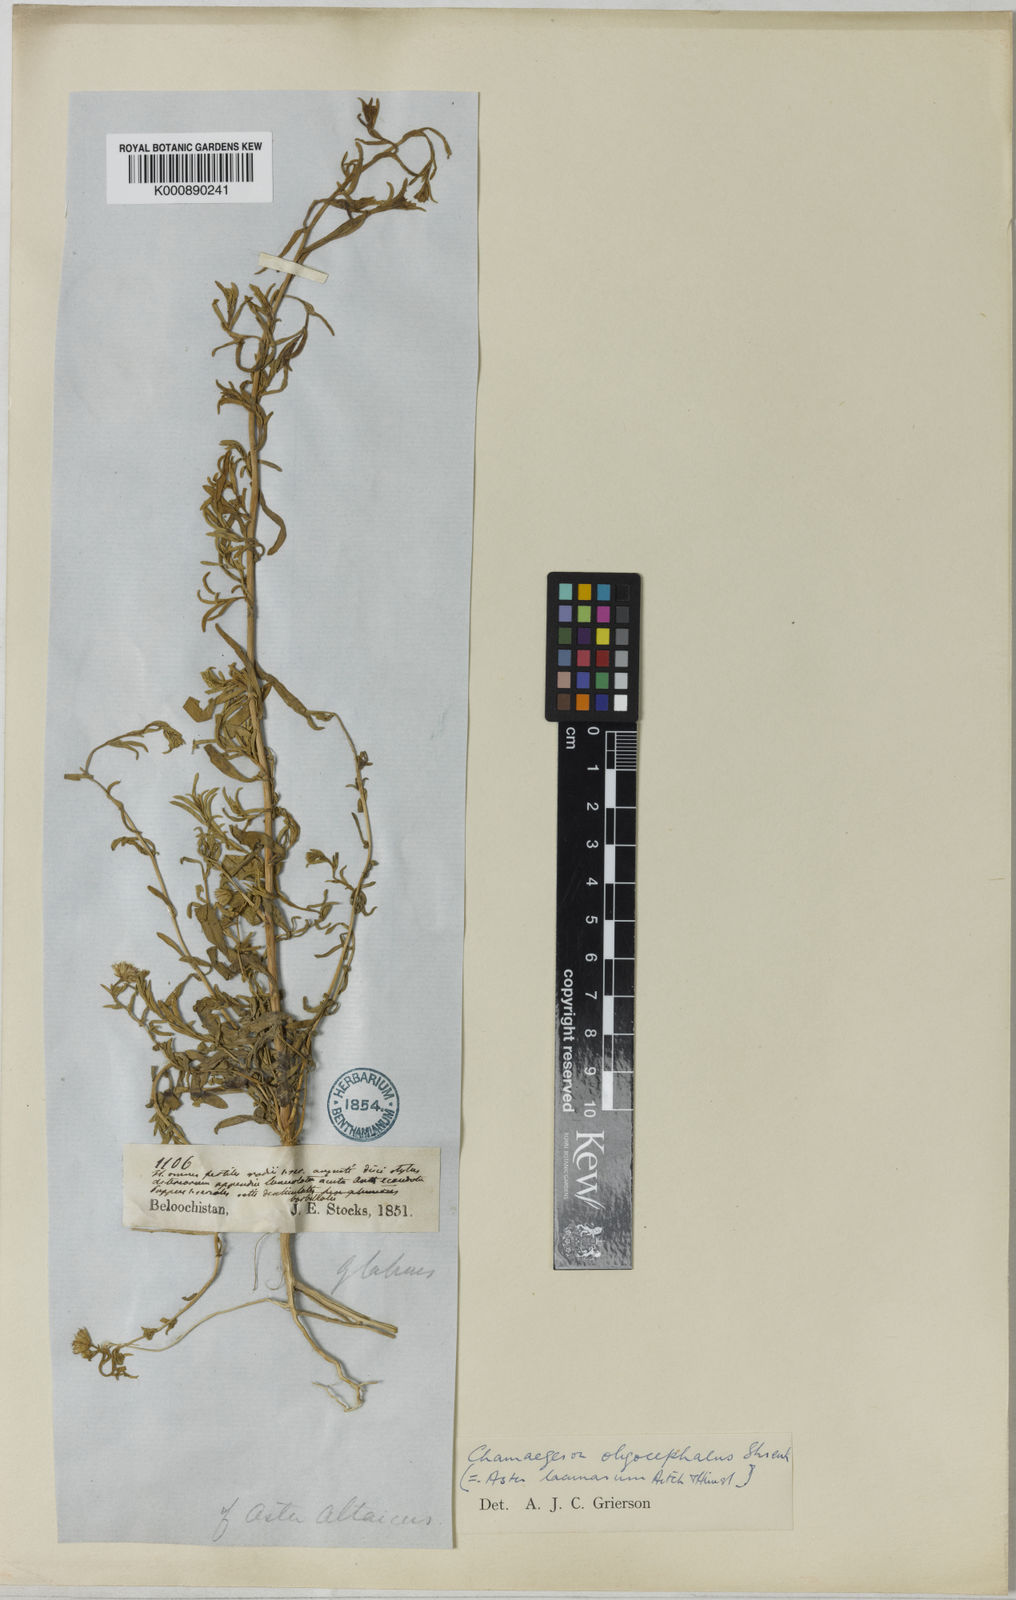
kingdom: Plantae
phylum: Tracheophyta
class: Magnoliopsida
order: Asterales
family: Asteraceae
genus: Chamaegeron
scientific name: Chamaegeron oligocephalus
